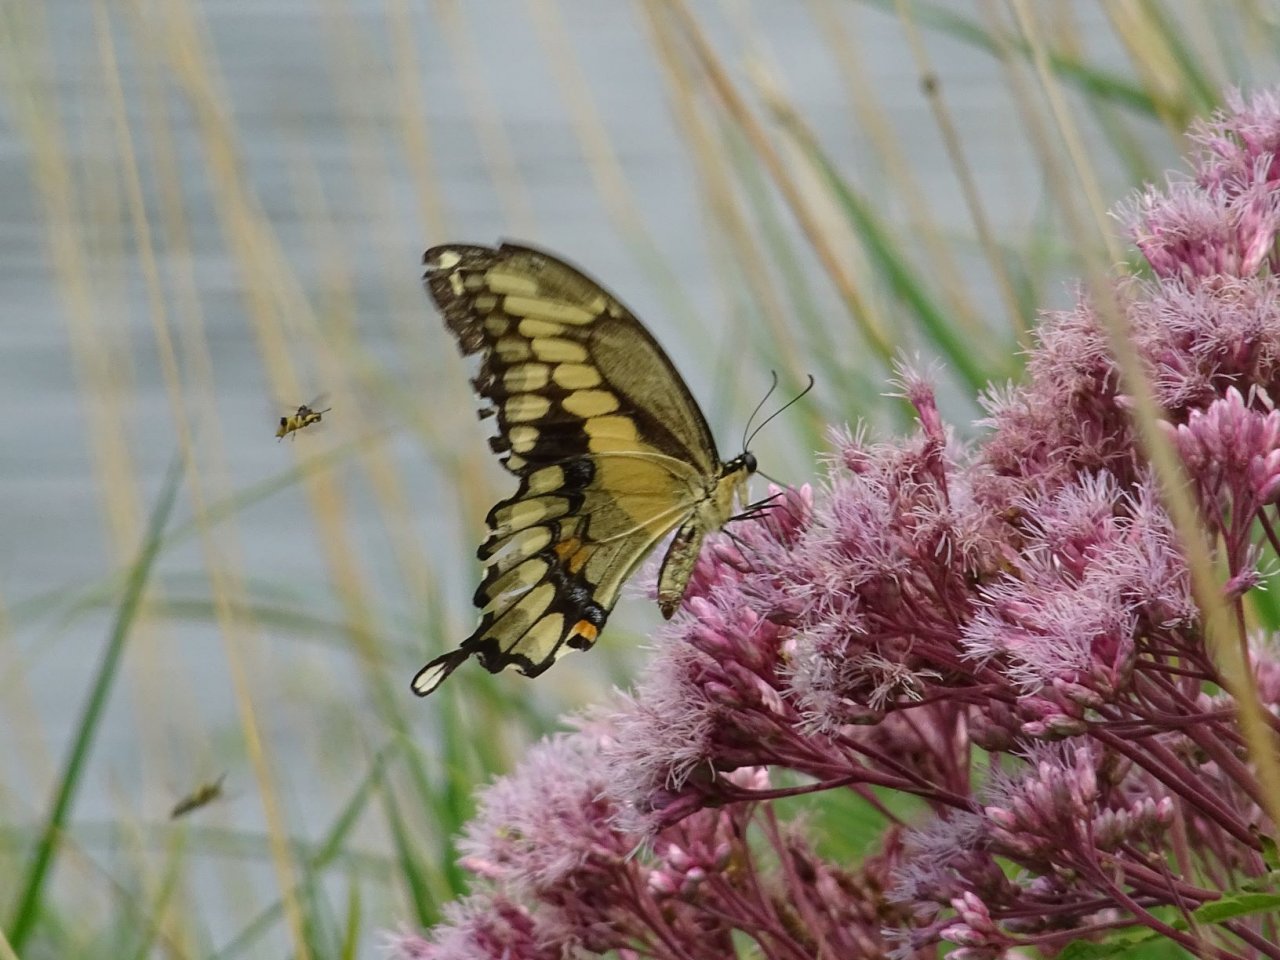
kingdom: Animalia
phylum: Arthropoda
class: Insecta
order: Lepidoptera
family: Papilionidae
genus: Papilio
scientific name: Papilio cresphontes
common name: Eastern Giant Swallowtail
